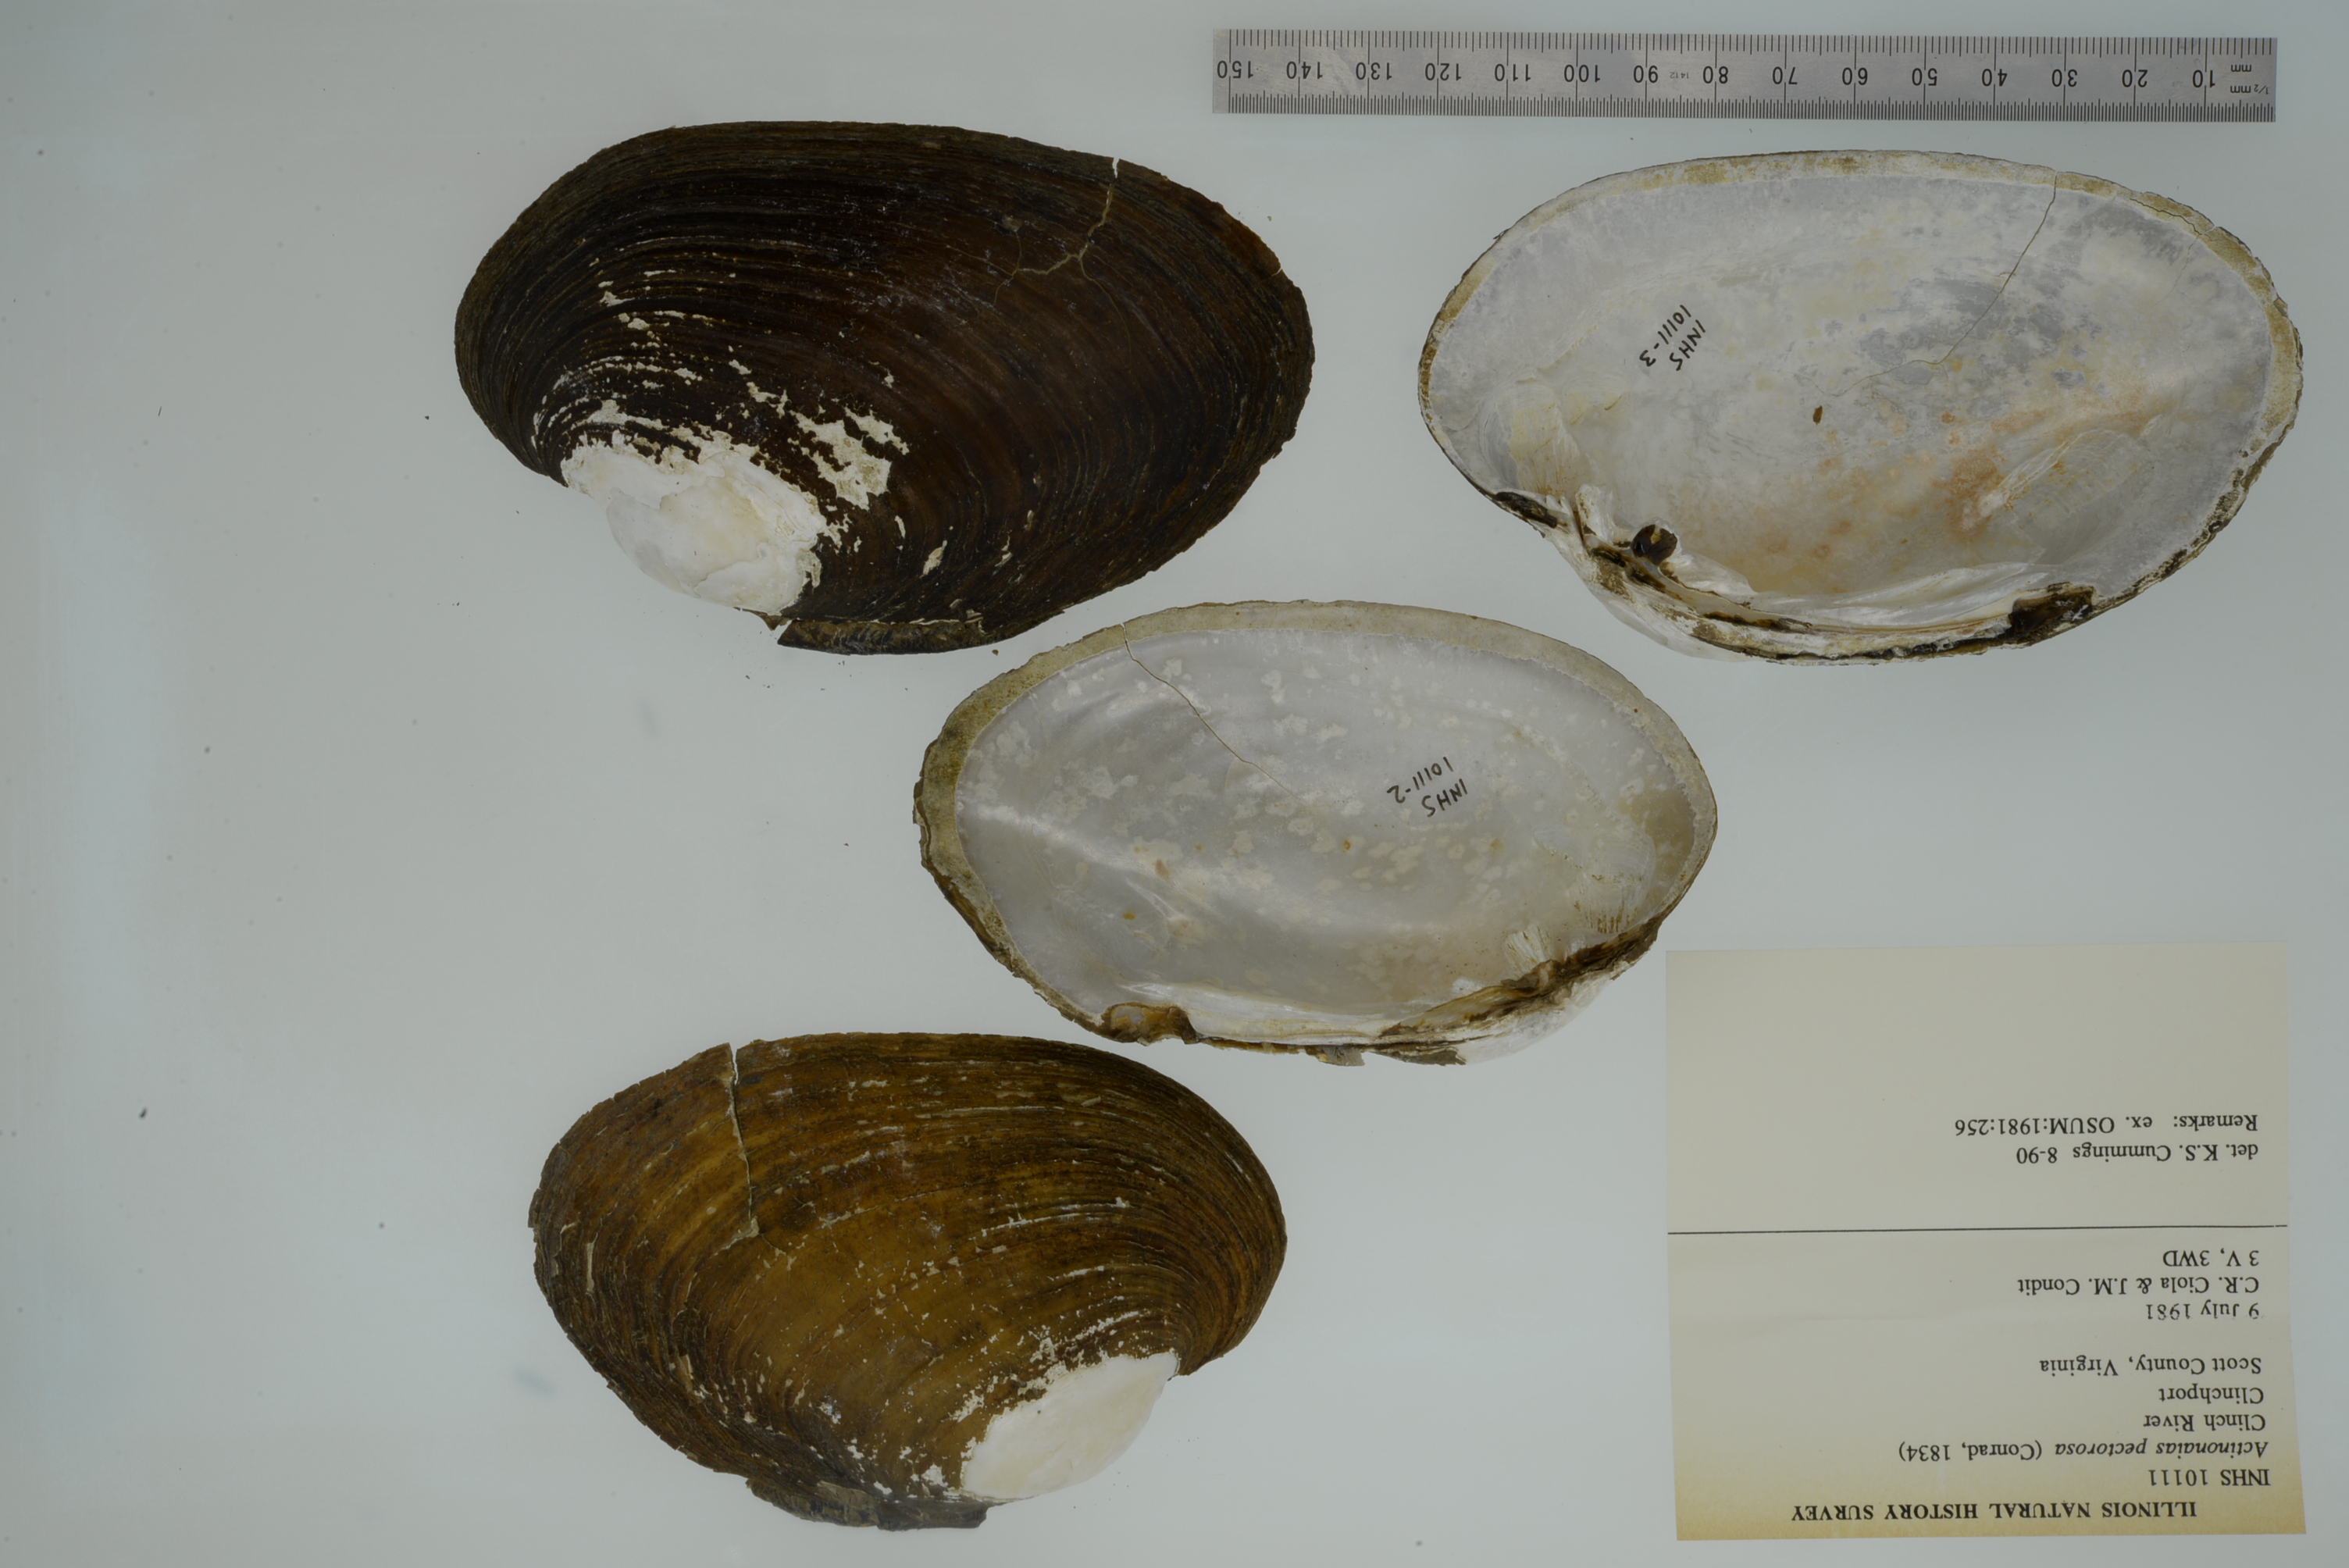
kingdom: Animalia
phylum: Mollusca
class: Bivalvia
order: Unionida
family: Unionidae
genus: Ortmanniana
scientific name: Ortmanniana pectorosa
